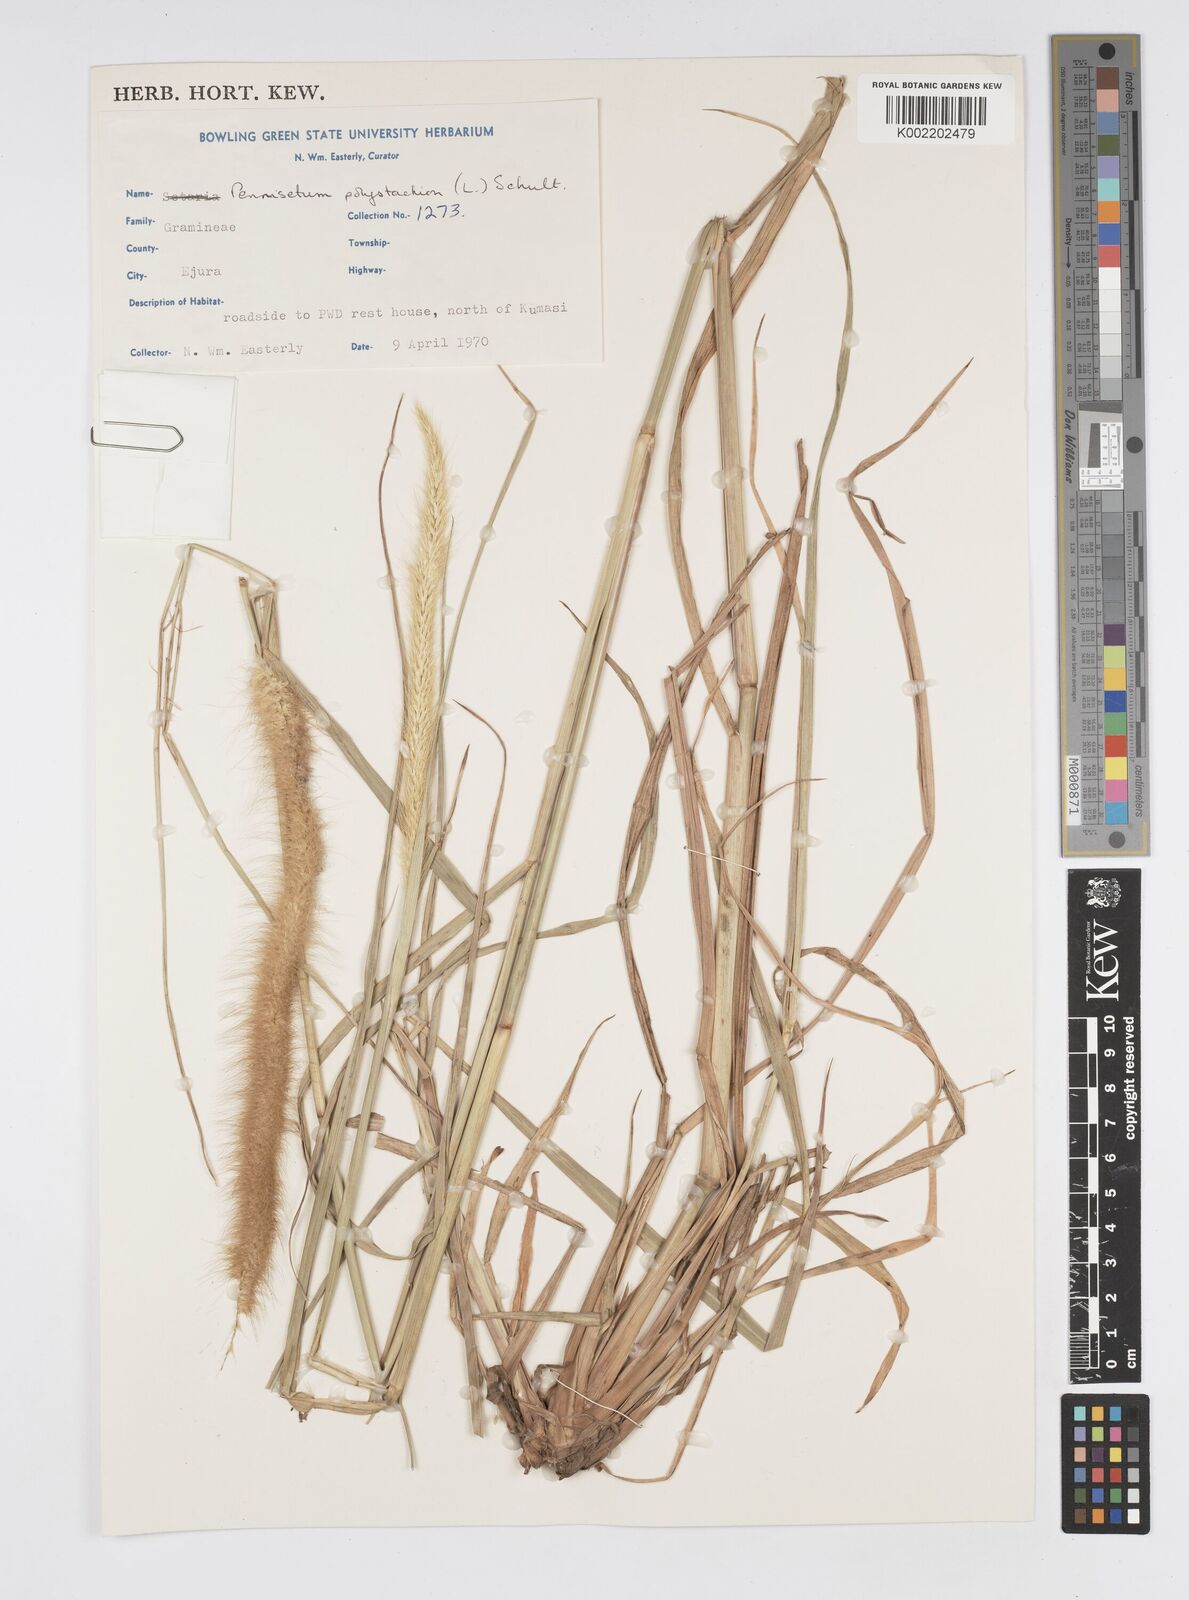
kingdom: Plantae
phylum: Tracheophyta
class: Liliopsida
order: Poales
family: Poaceae
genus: Setaria
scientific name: Setaria parviflora
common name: Knotroot bristle-grass
